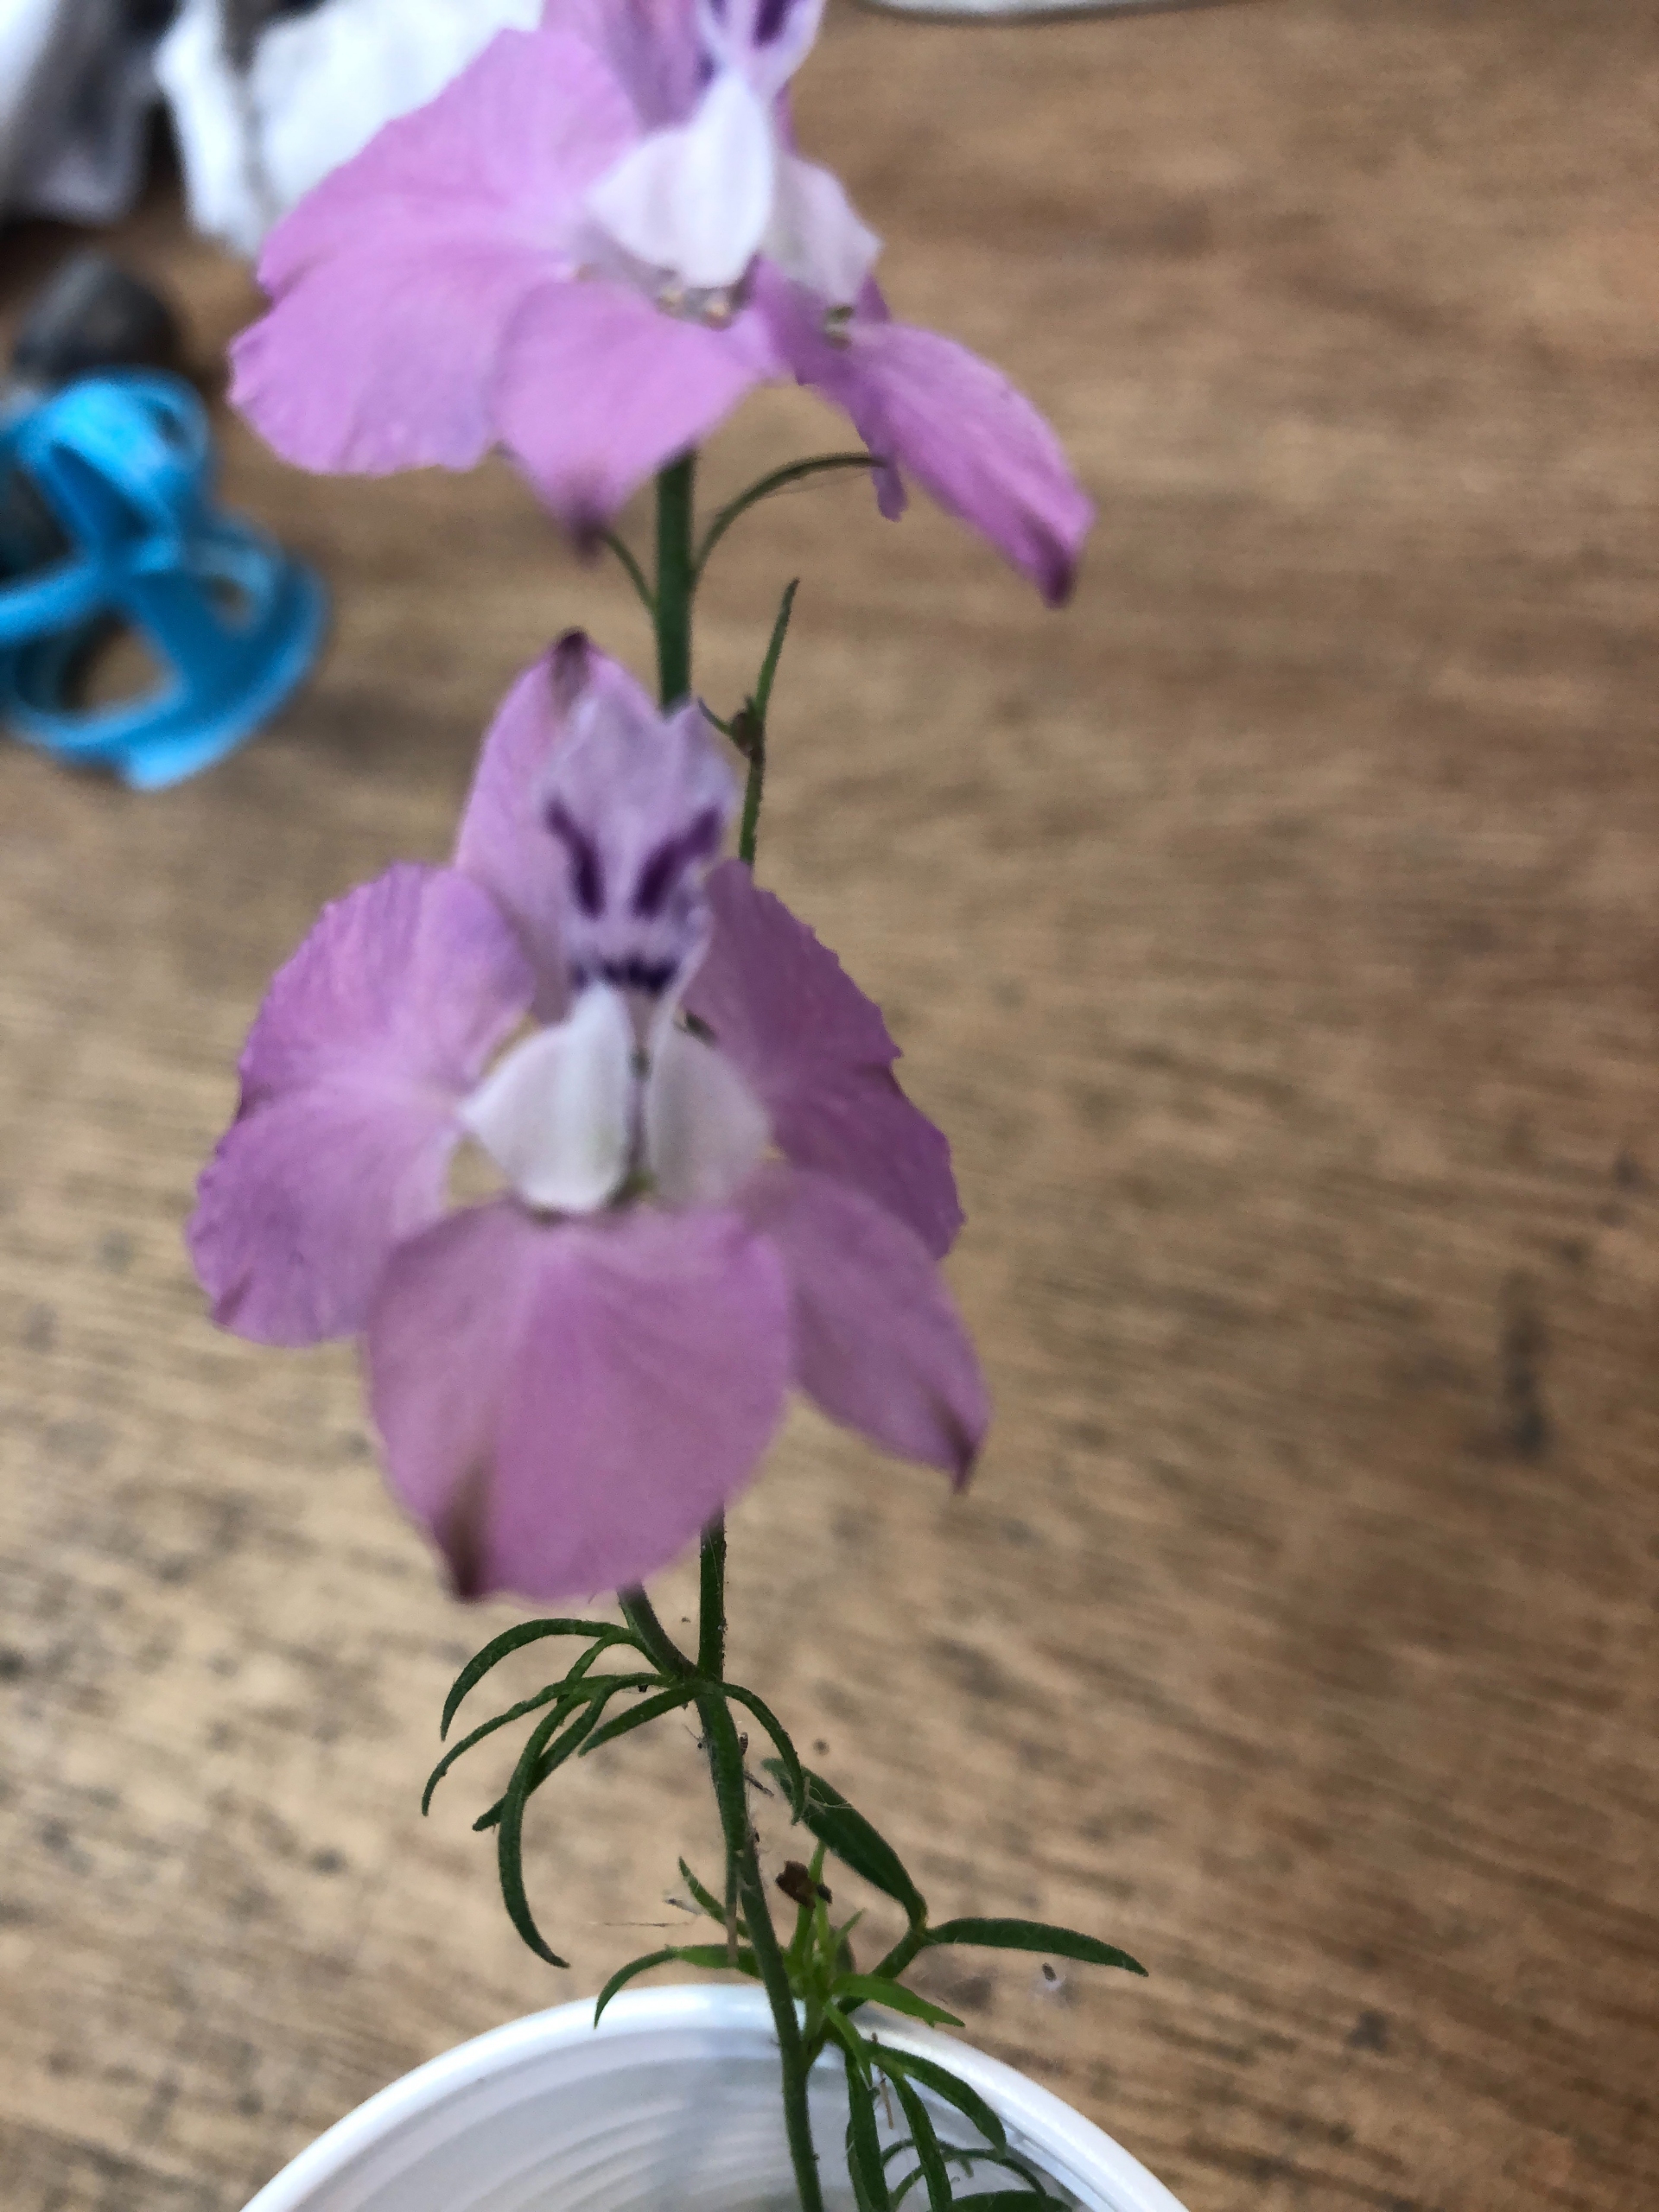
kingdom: Plantae
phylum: Tracheophyta
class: Magnoliopsida
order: Ranunculales
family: Ranunculaceae
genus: Delphinium
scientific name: Delphinium ajacis
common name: Hyacint-ridderspore
